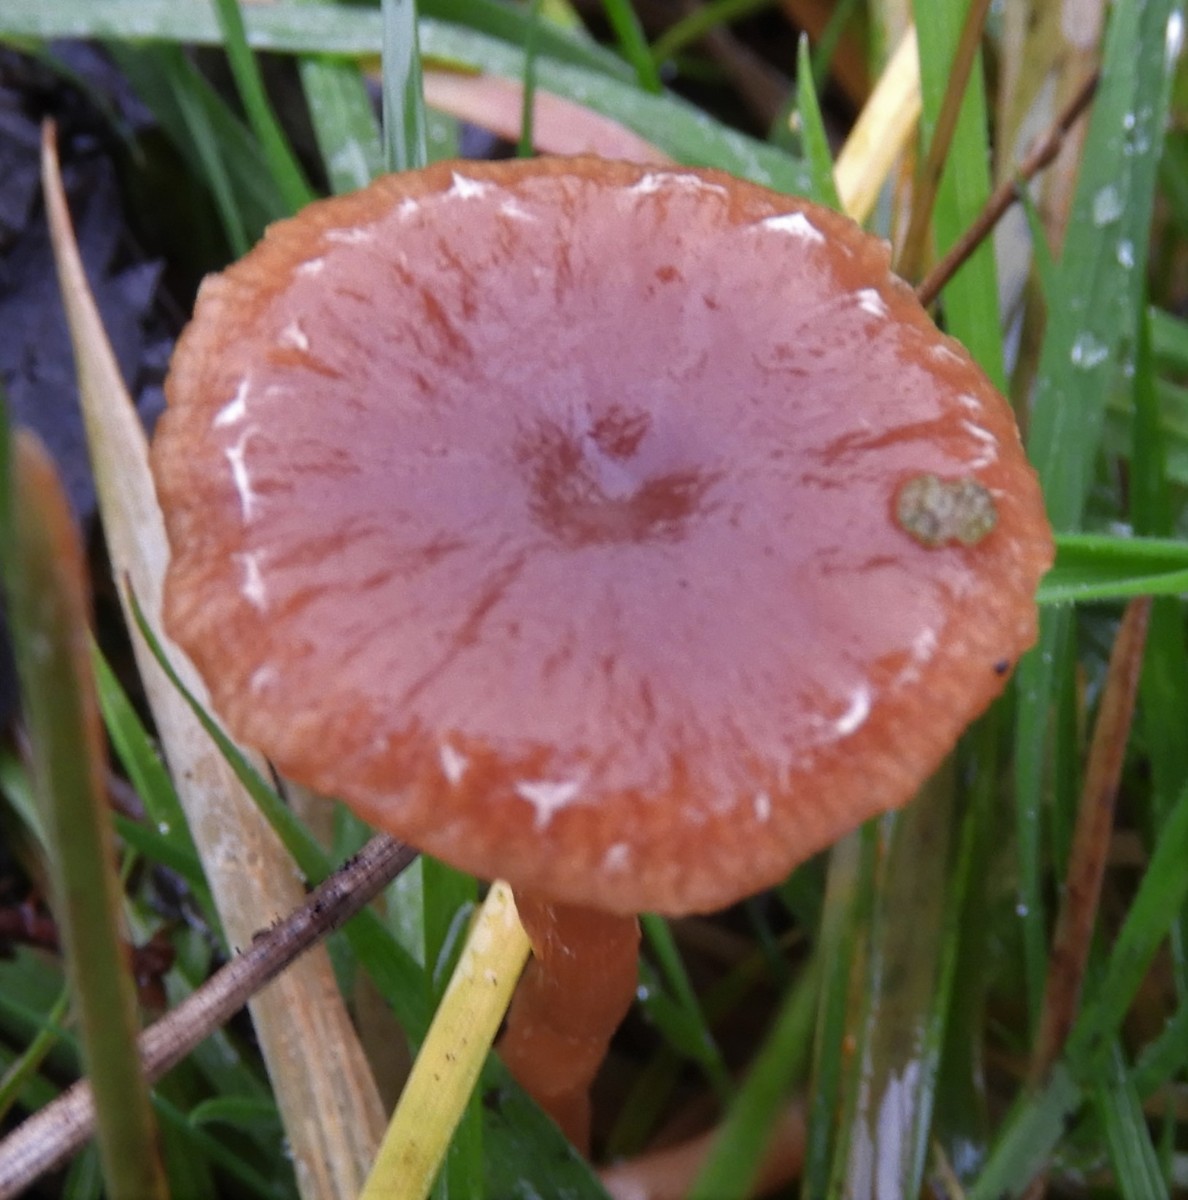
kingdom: Fungi
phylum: Basidiomycota
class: Agaricomycetes
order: Agaricales
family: Tubariaceae
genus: Tubaria
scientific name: Tubaria furfuracea
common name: kliddet fnughat
